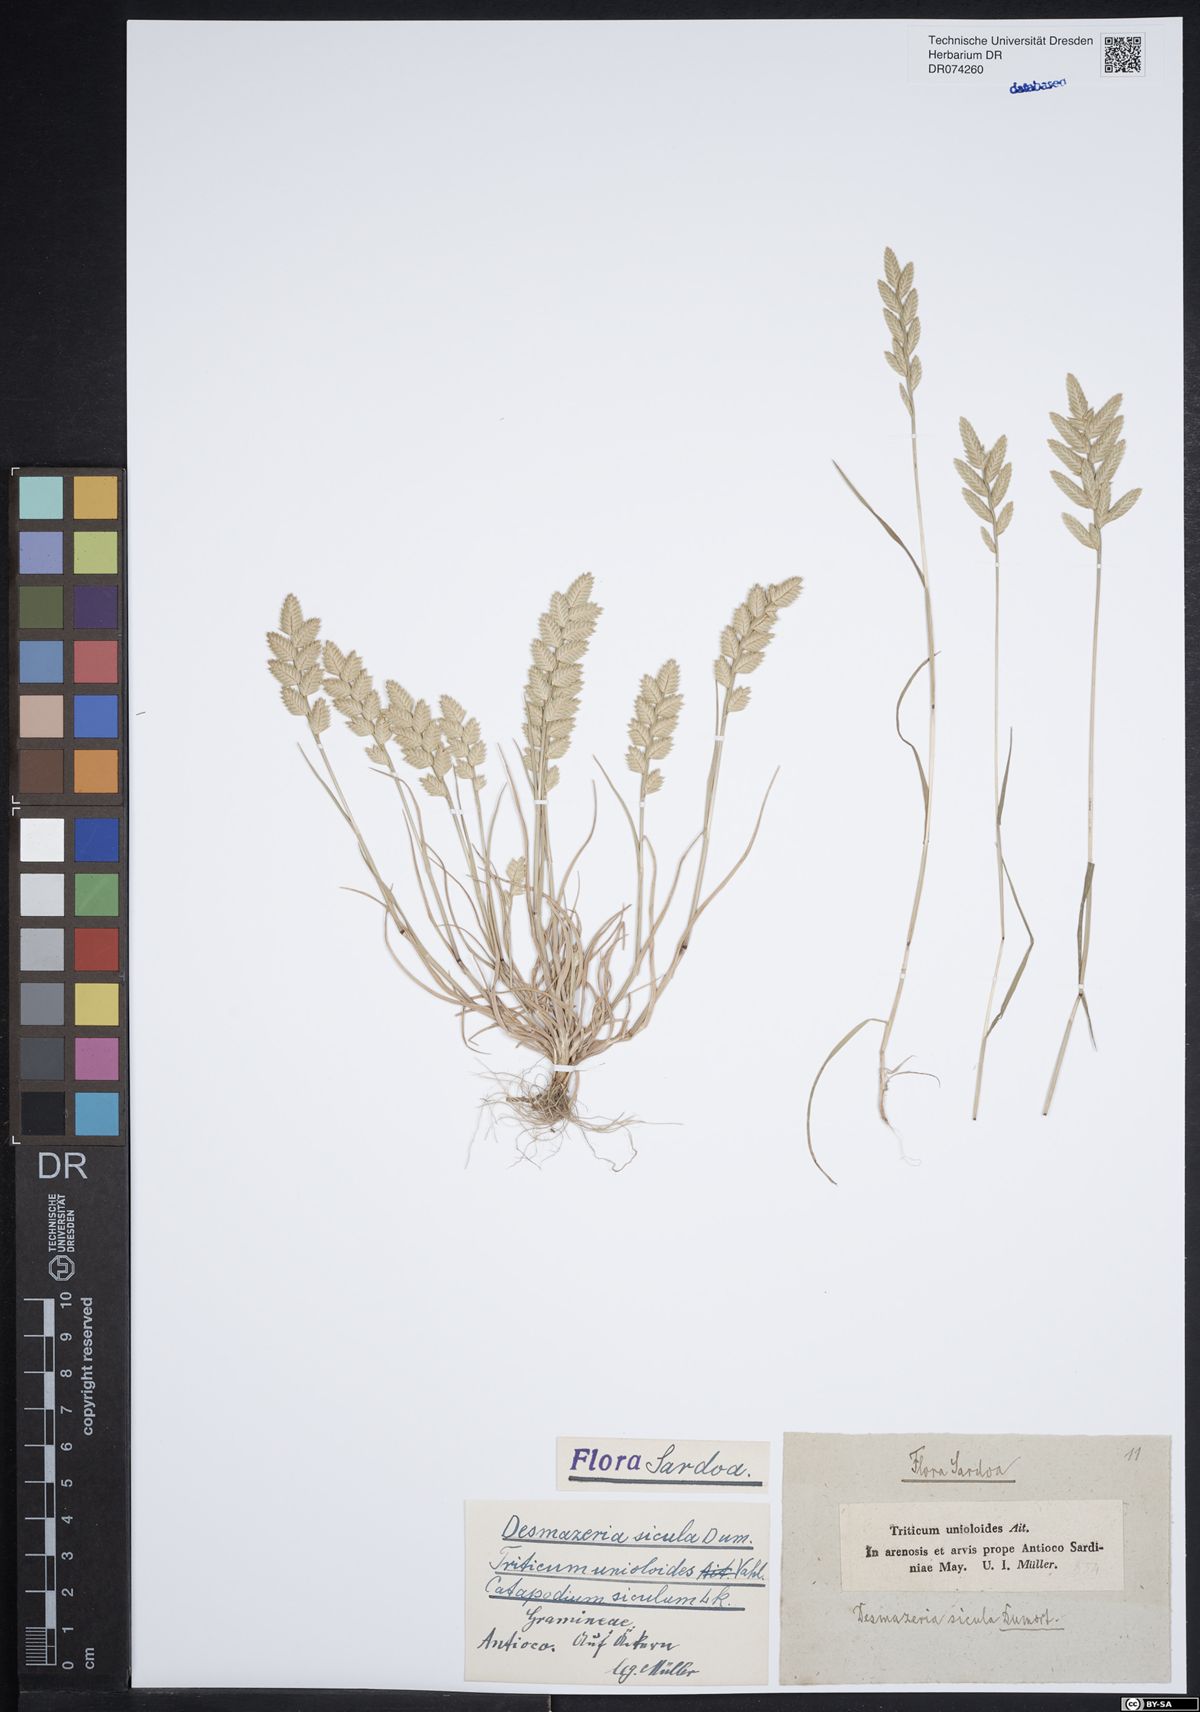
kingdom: Plantae
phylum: Tracheophyta
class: Liliopsida
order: Poales
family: Poaceae
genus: Desmazeria
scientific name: Desmazeria sicula
